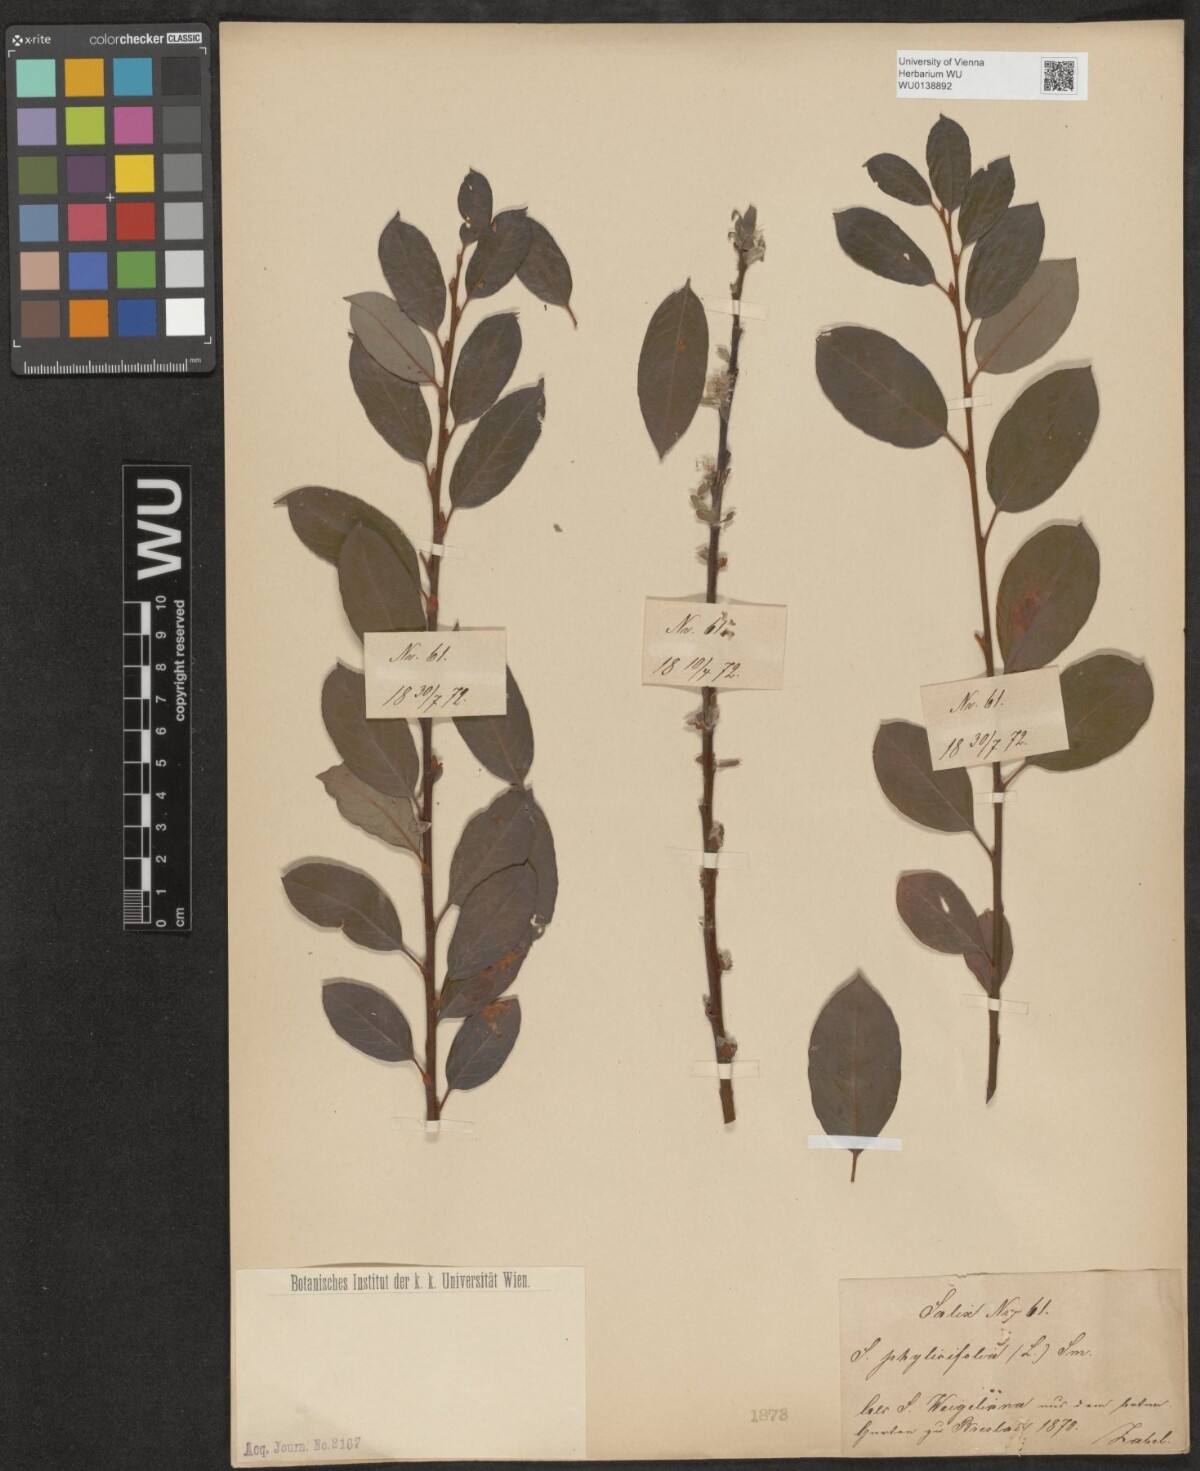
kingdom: Plantae
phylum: Tracheophyta
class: Magnoliopsida
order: Malpighiales
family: Salicaceae
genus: Salix
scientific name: Salix phylicifolia
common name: Tea-leaved willow
